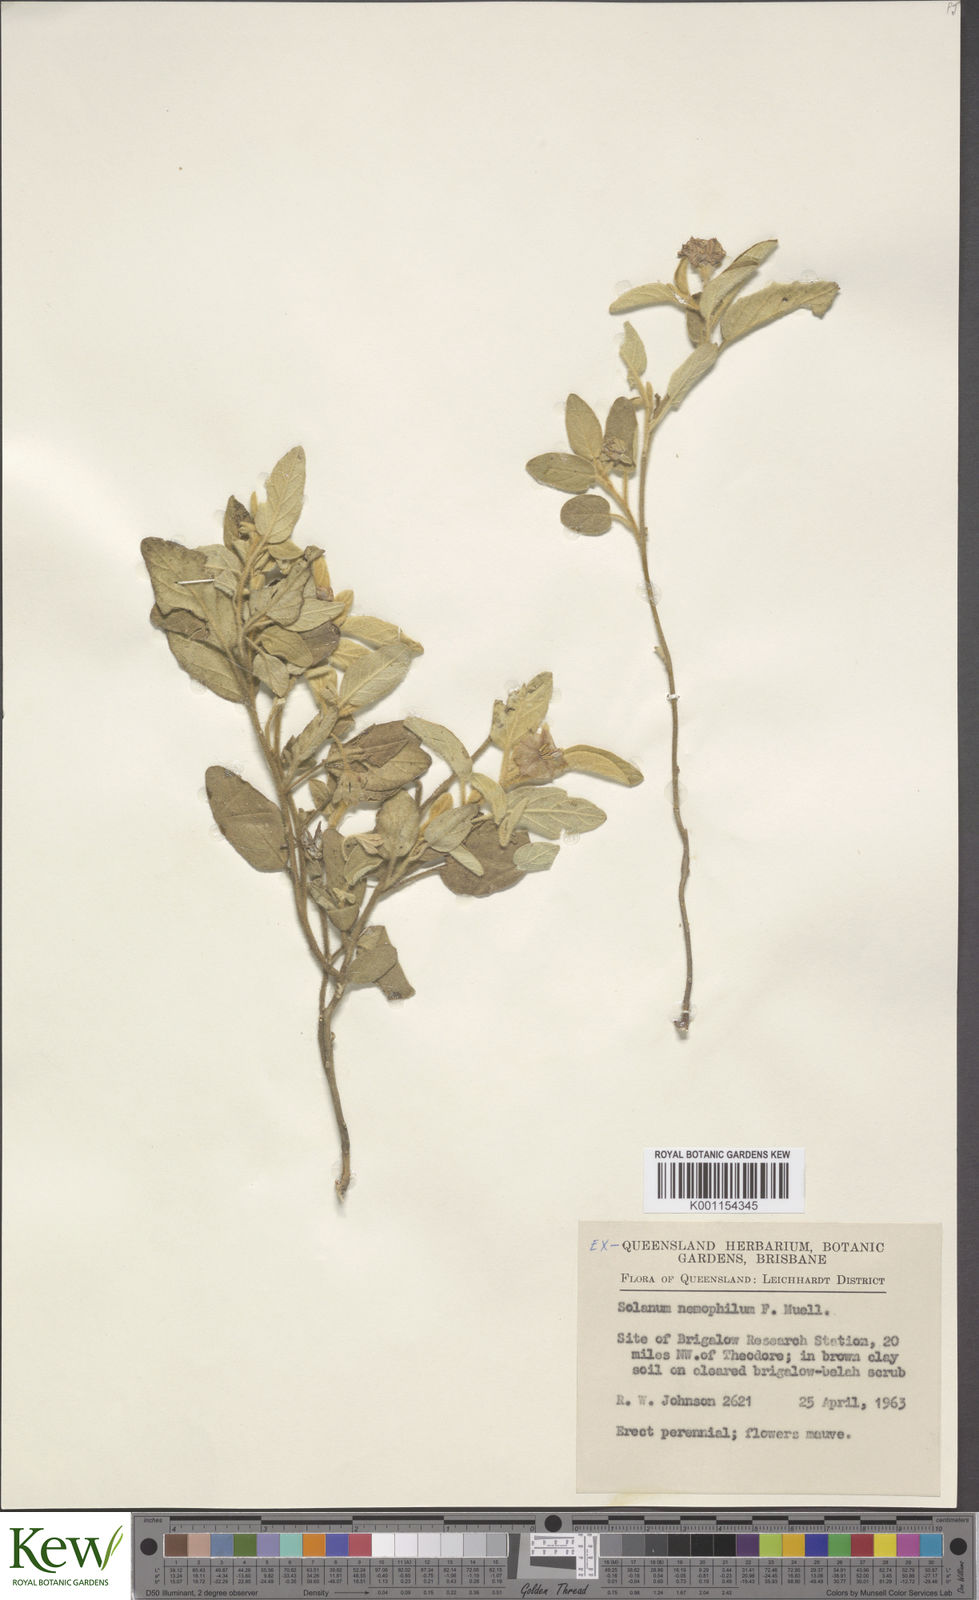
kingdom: Plantae
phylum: Tracheophyta
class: Magnoliopsida
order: Solanales
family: Solanaceae
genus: Solanum
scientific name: Solanum nemophilum
